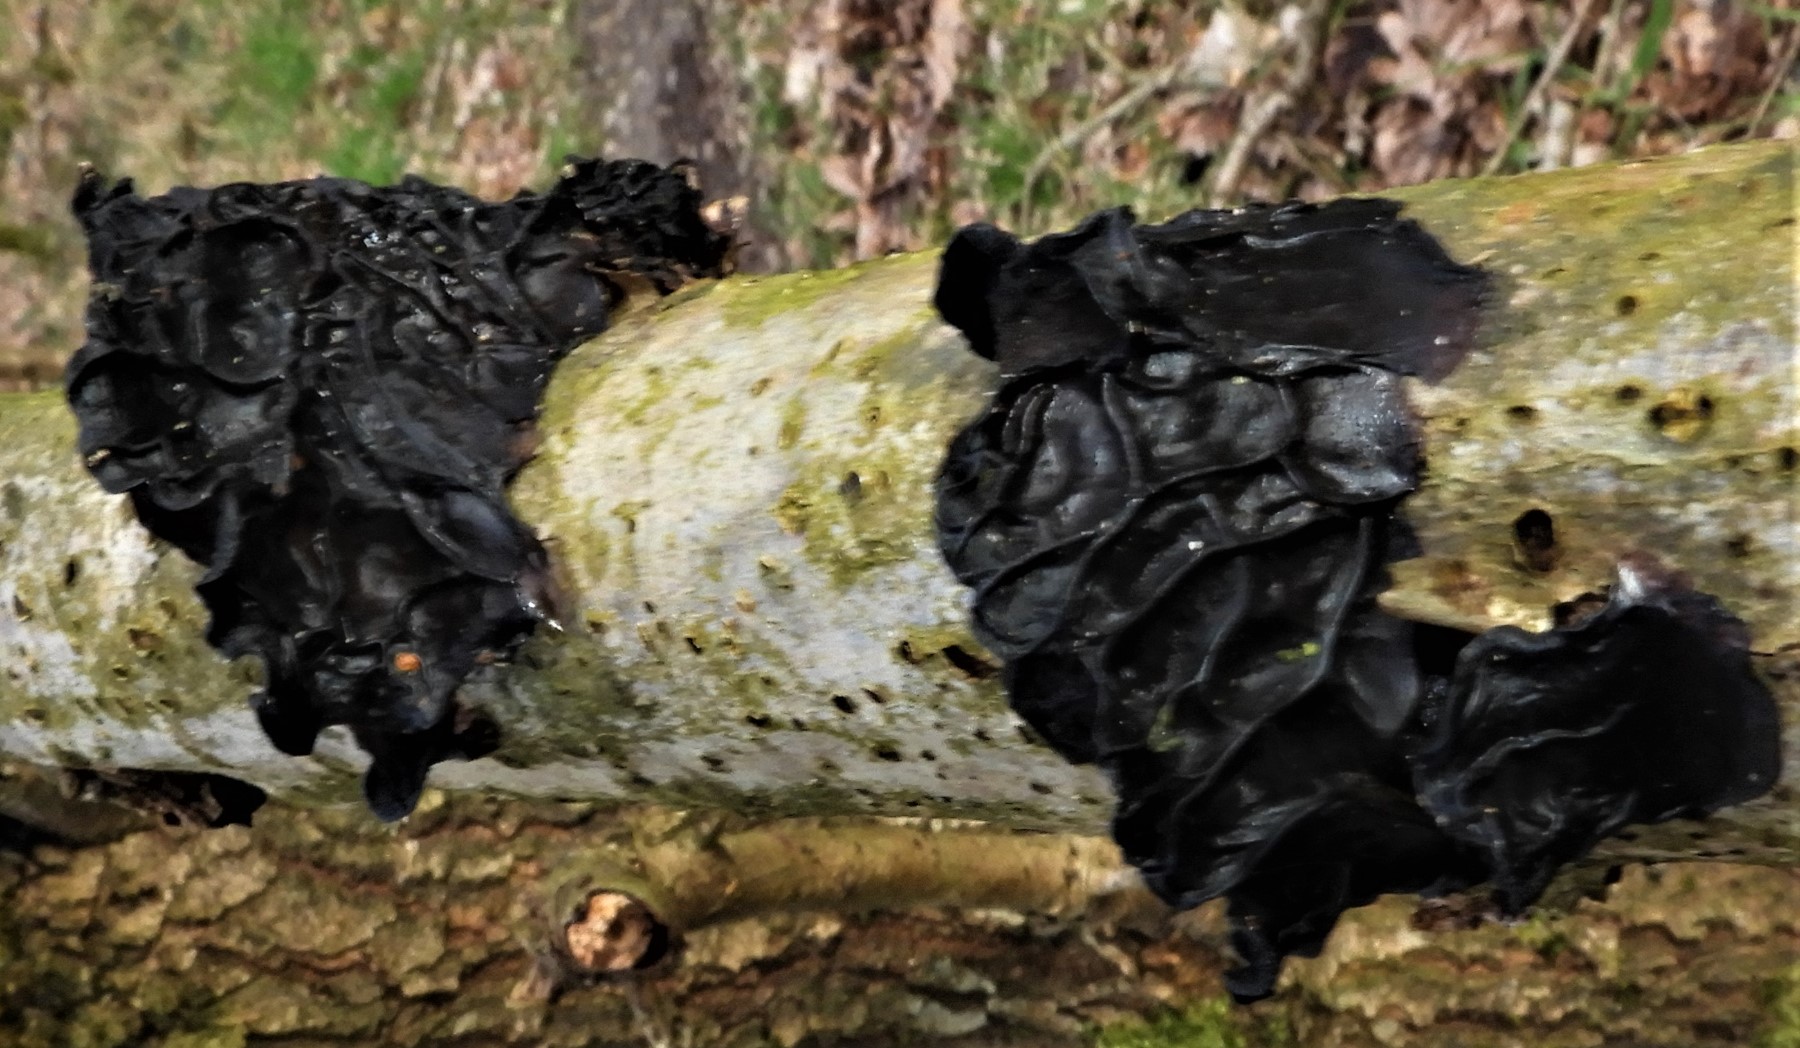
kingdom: Fungi
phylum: Basidiomycota
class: Agaricomycetes
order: Auriculariales
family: Auriculariaceae
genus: Exidia
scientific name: Exidia glandulosa
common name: ege-bævretop
